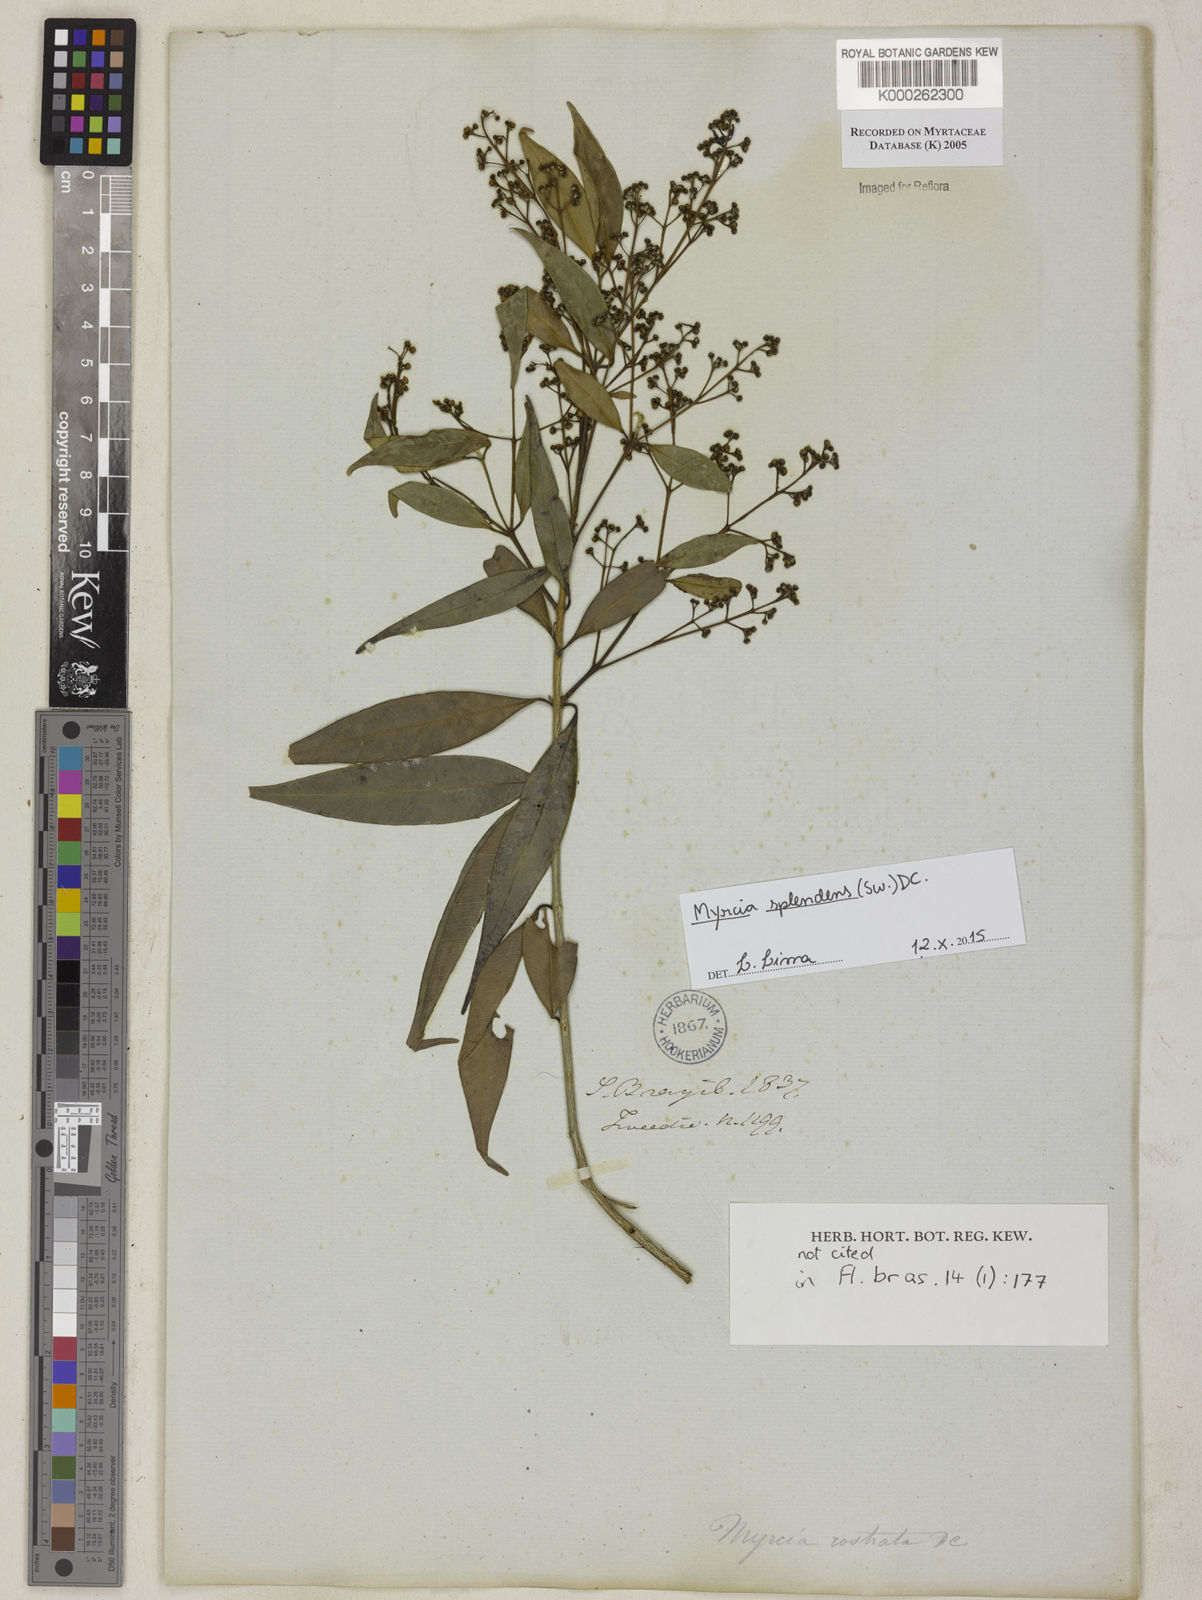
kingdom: Plantae
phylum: Tracheophyta
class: Magnoliopsida
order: Myrtales
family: Myrtaceae
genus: Myrcia
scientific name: Myrcia splendens
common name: Surinam cherry
